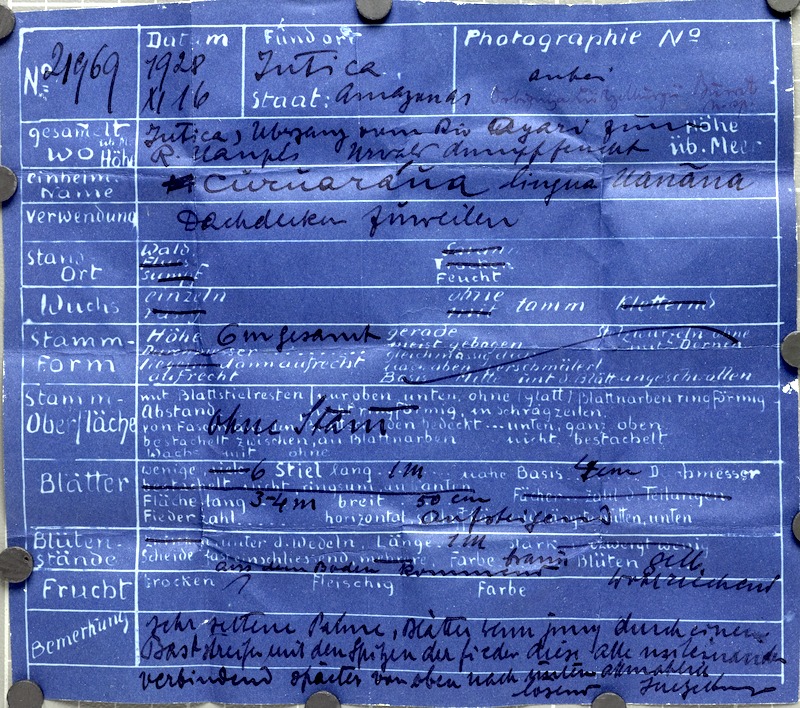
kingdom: Plantae
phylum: Tracheophyta
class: Liliopsida
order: Arecales
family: Arecaceae
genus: Attalea
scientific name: Attalea luetzelburgii
